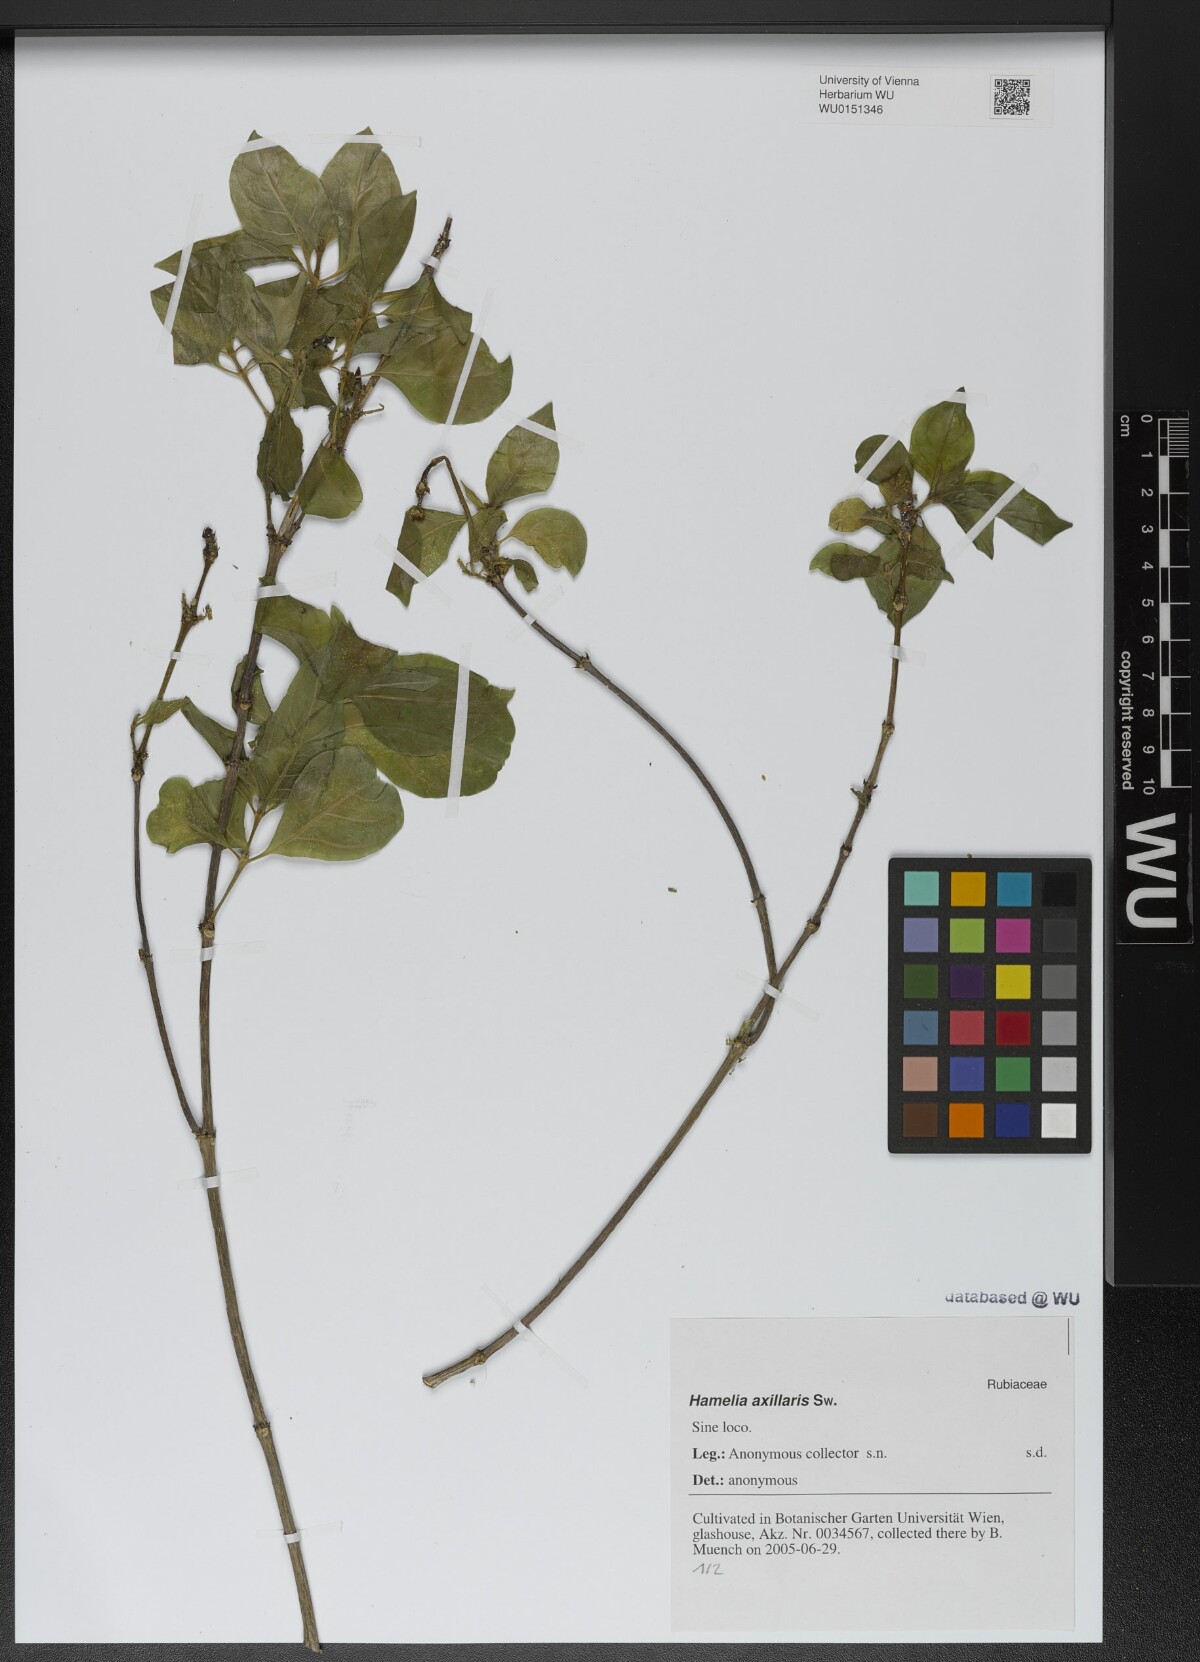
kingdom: Plantae
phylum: Tracheophyta
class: Magnoliopsida
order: Gentianales
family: Rubiaceae
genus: Hamelia
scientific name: Hamelia axillaris
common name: Balsamillo
